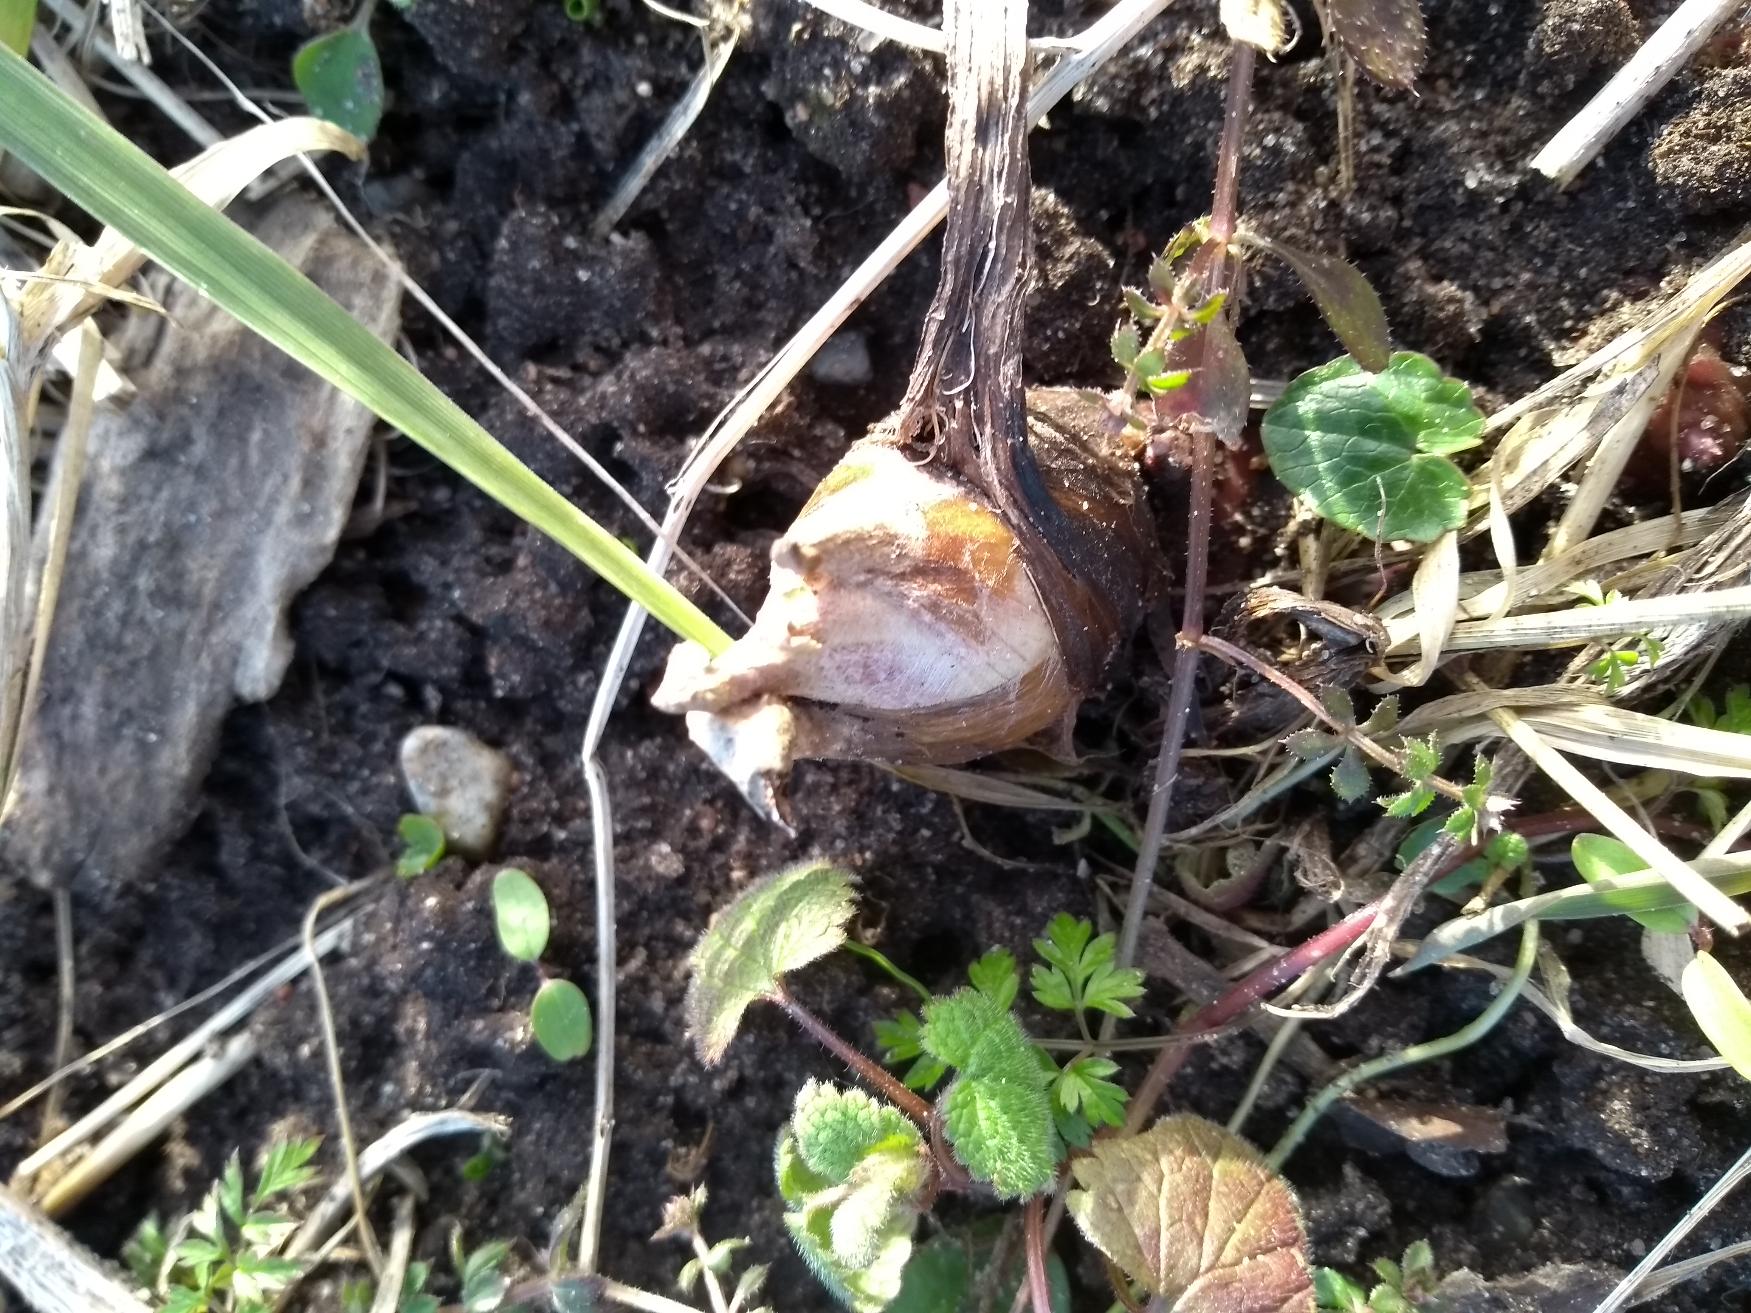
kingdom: Plantae
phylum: Tracheophyta
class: Magnoliopsida
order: Asterales
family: Asteraceae
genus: Petasites
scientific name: Petasites hybridus
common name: Rød hestehov
